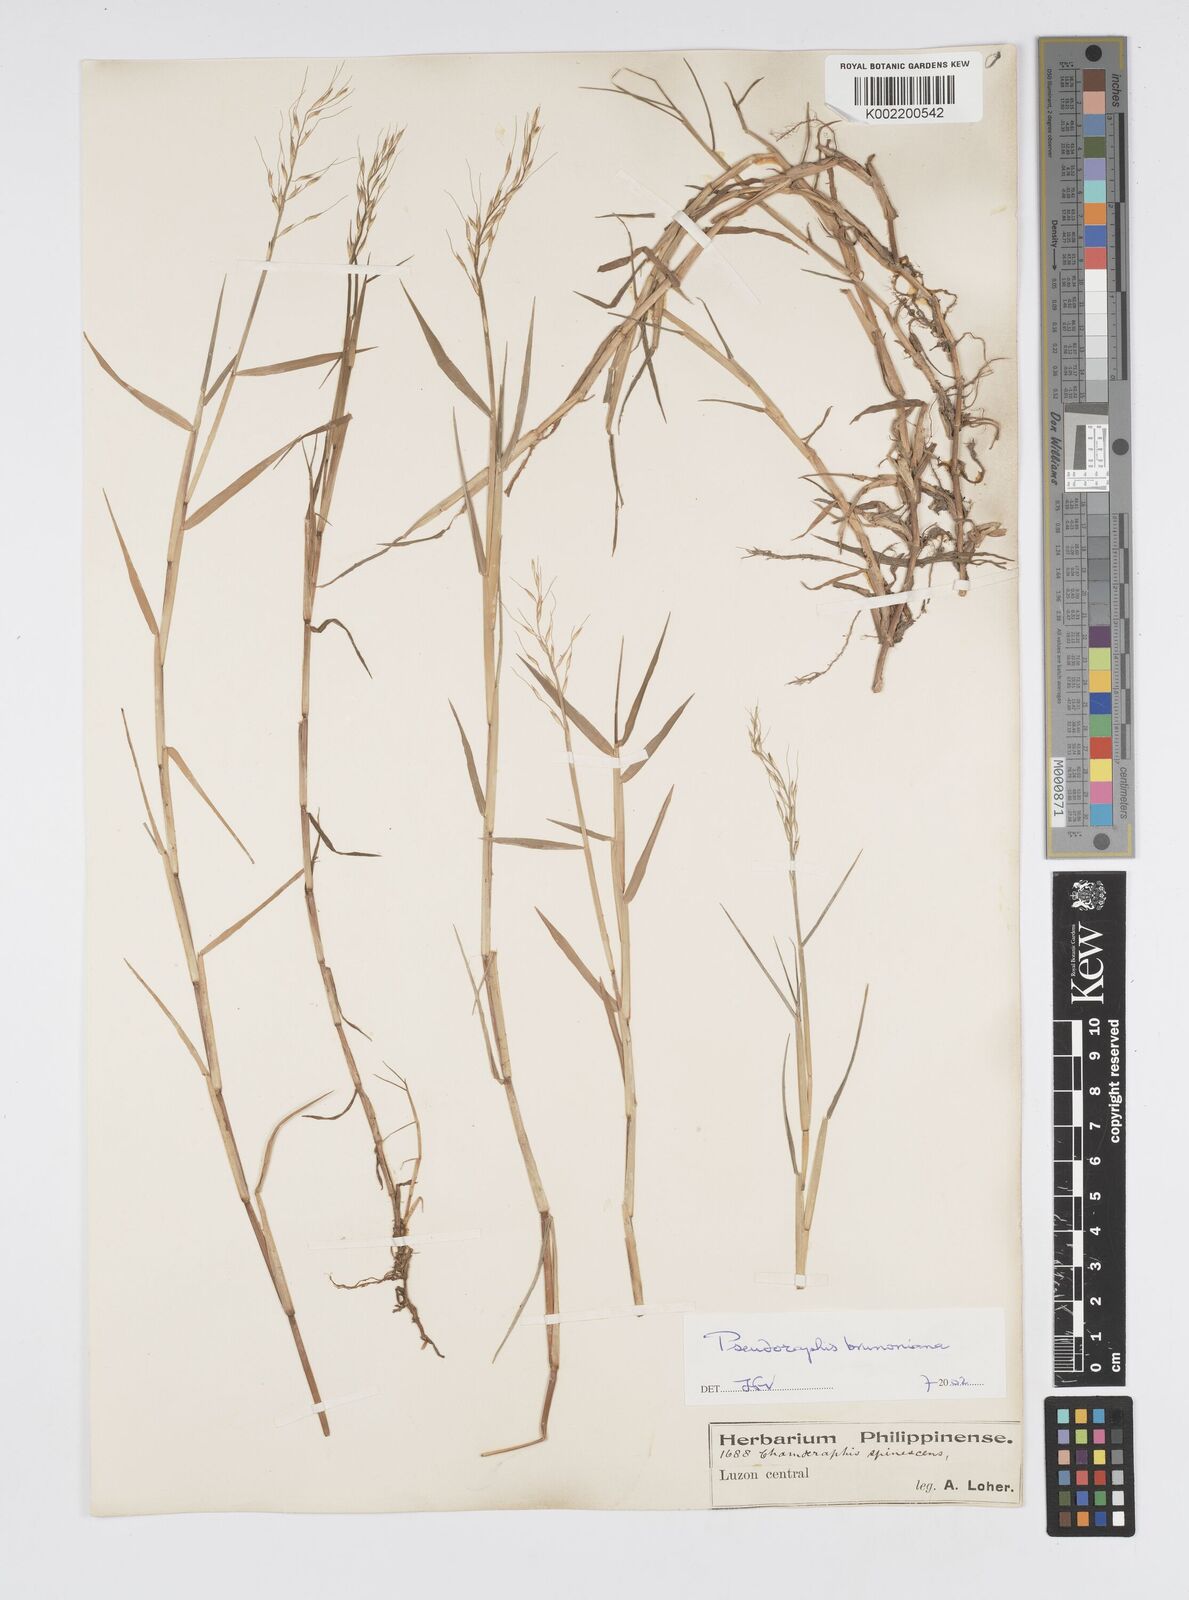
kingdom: Plantae
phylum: Tracheophyta
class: Liliopsida
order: Poales
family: Poaceae
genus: Pseudoraphis
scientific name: Pseudoraphis brunoniana
